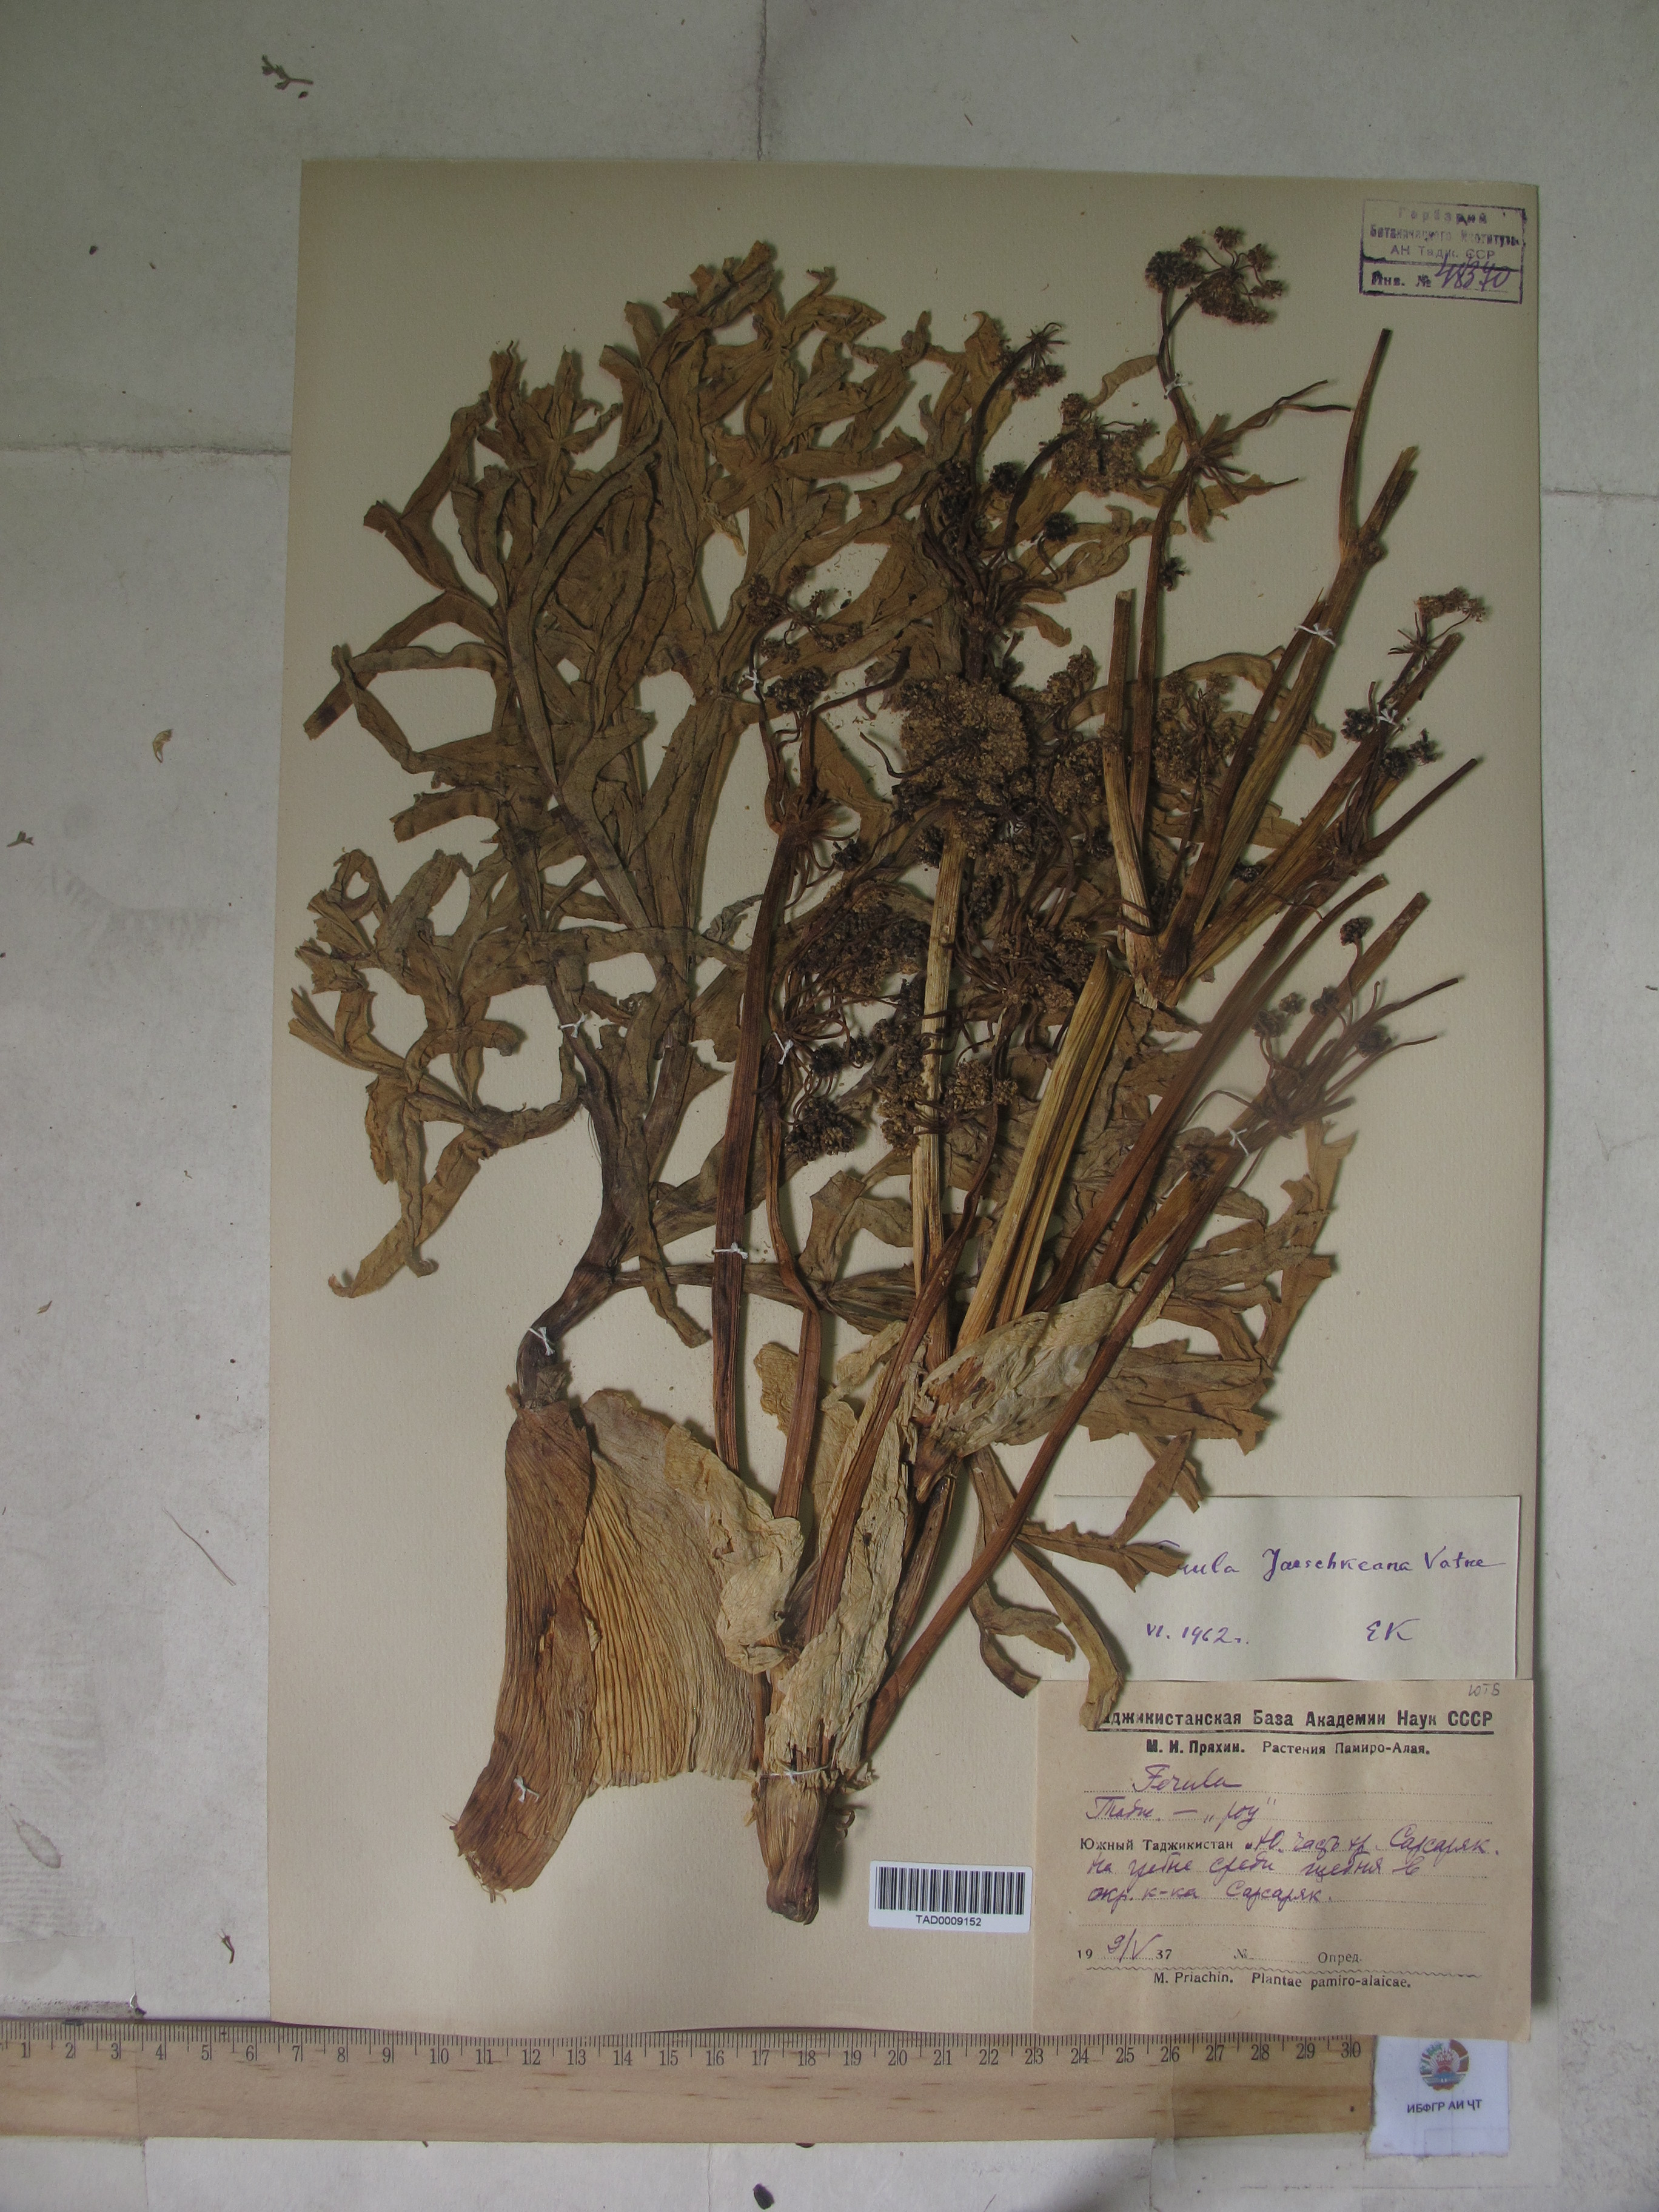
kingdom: Plantae
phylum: Tracheophyta
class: Magnoliopsida
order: Apiales
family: Apiaceae
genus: Ferula
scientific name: Ferula jaeschkeana
